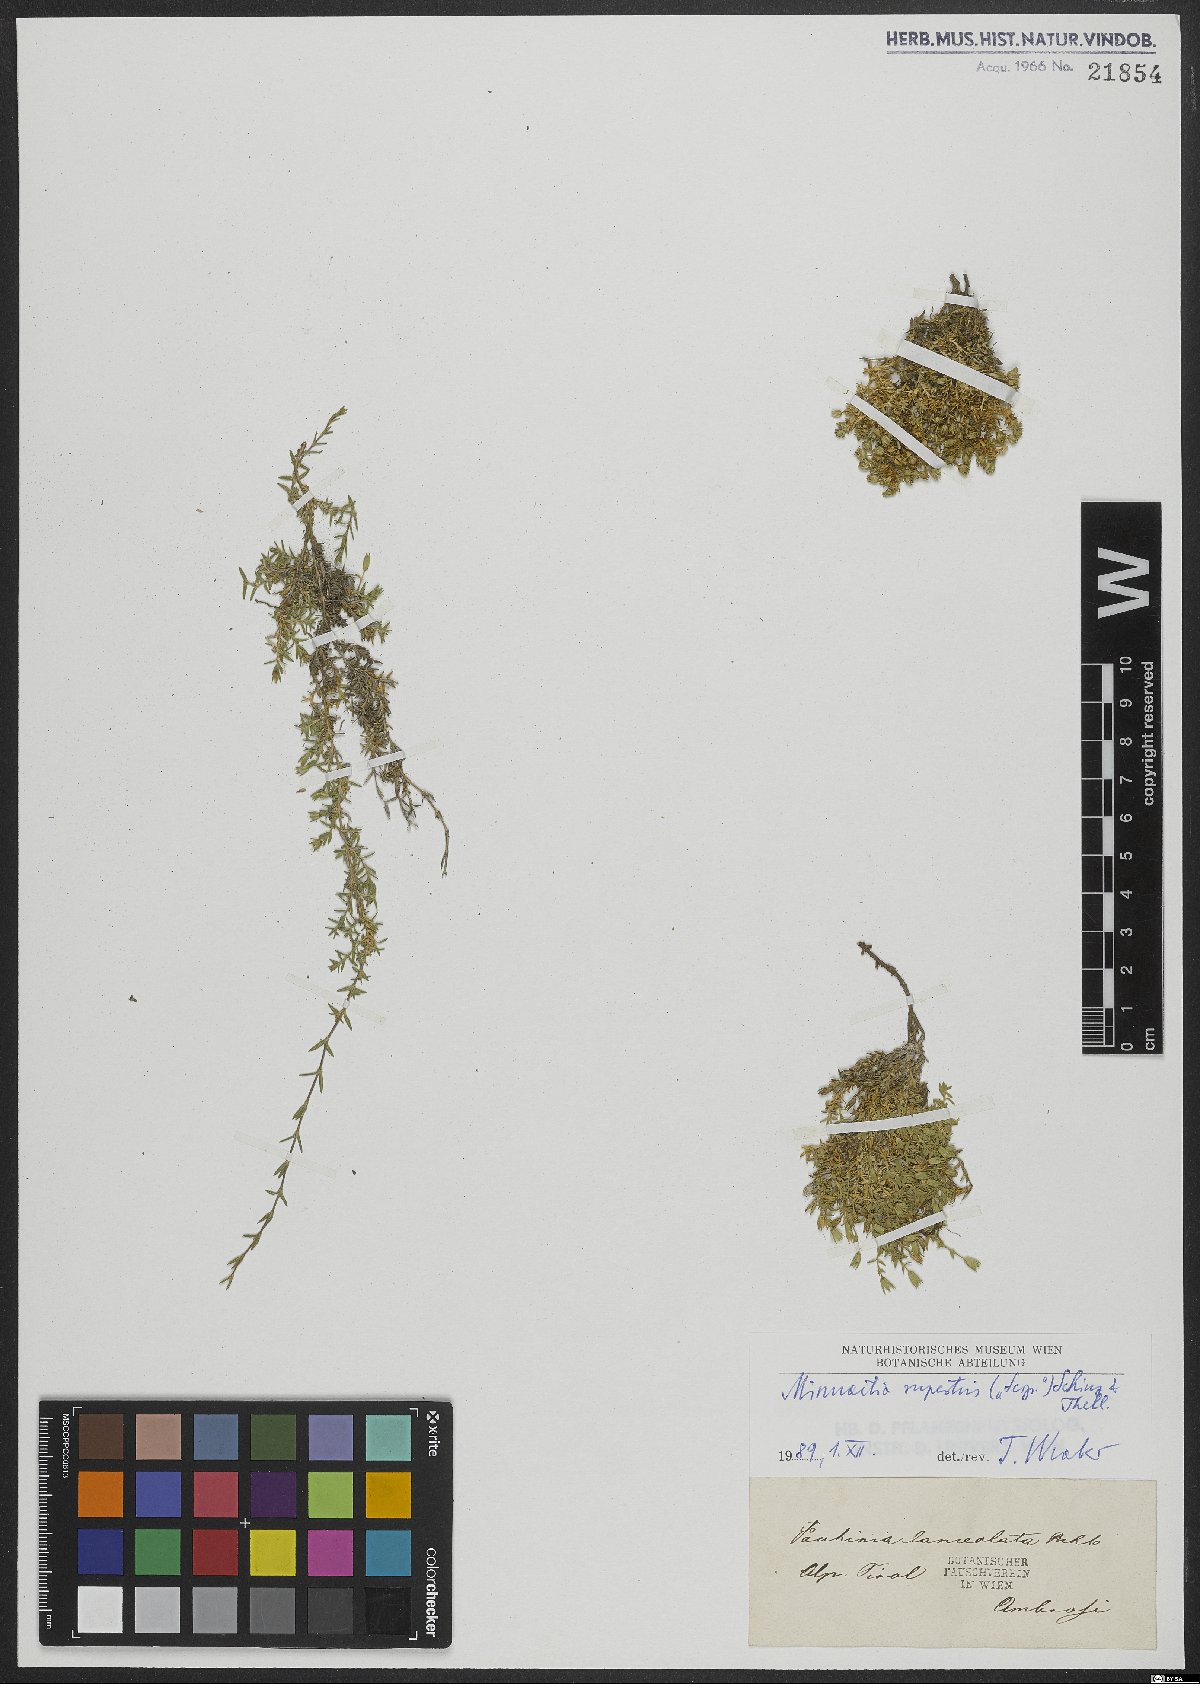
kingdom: Plantae
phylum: Tracheophyta
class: Magnoliopsida
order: Caryophyllales
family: Caryophyllaceae
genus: Facchinia
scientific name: Facchinia rupestris
